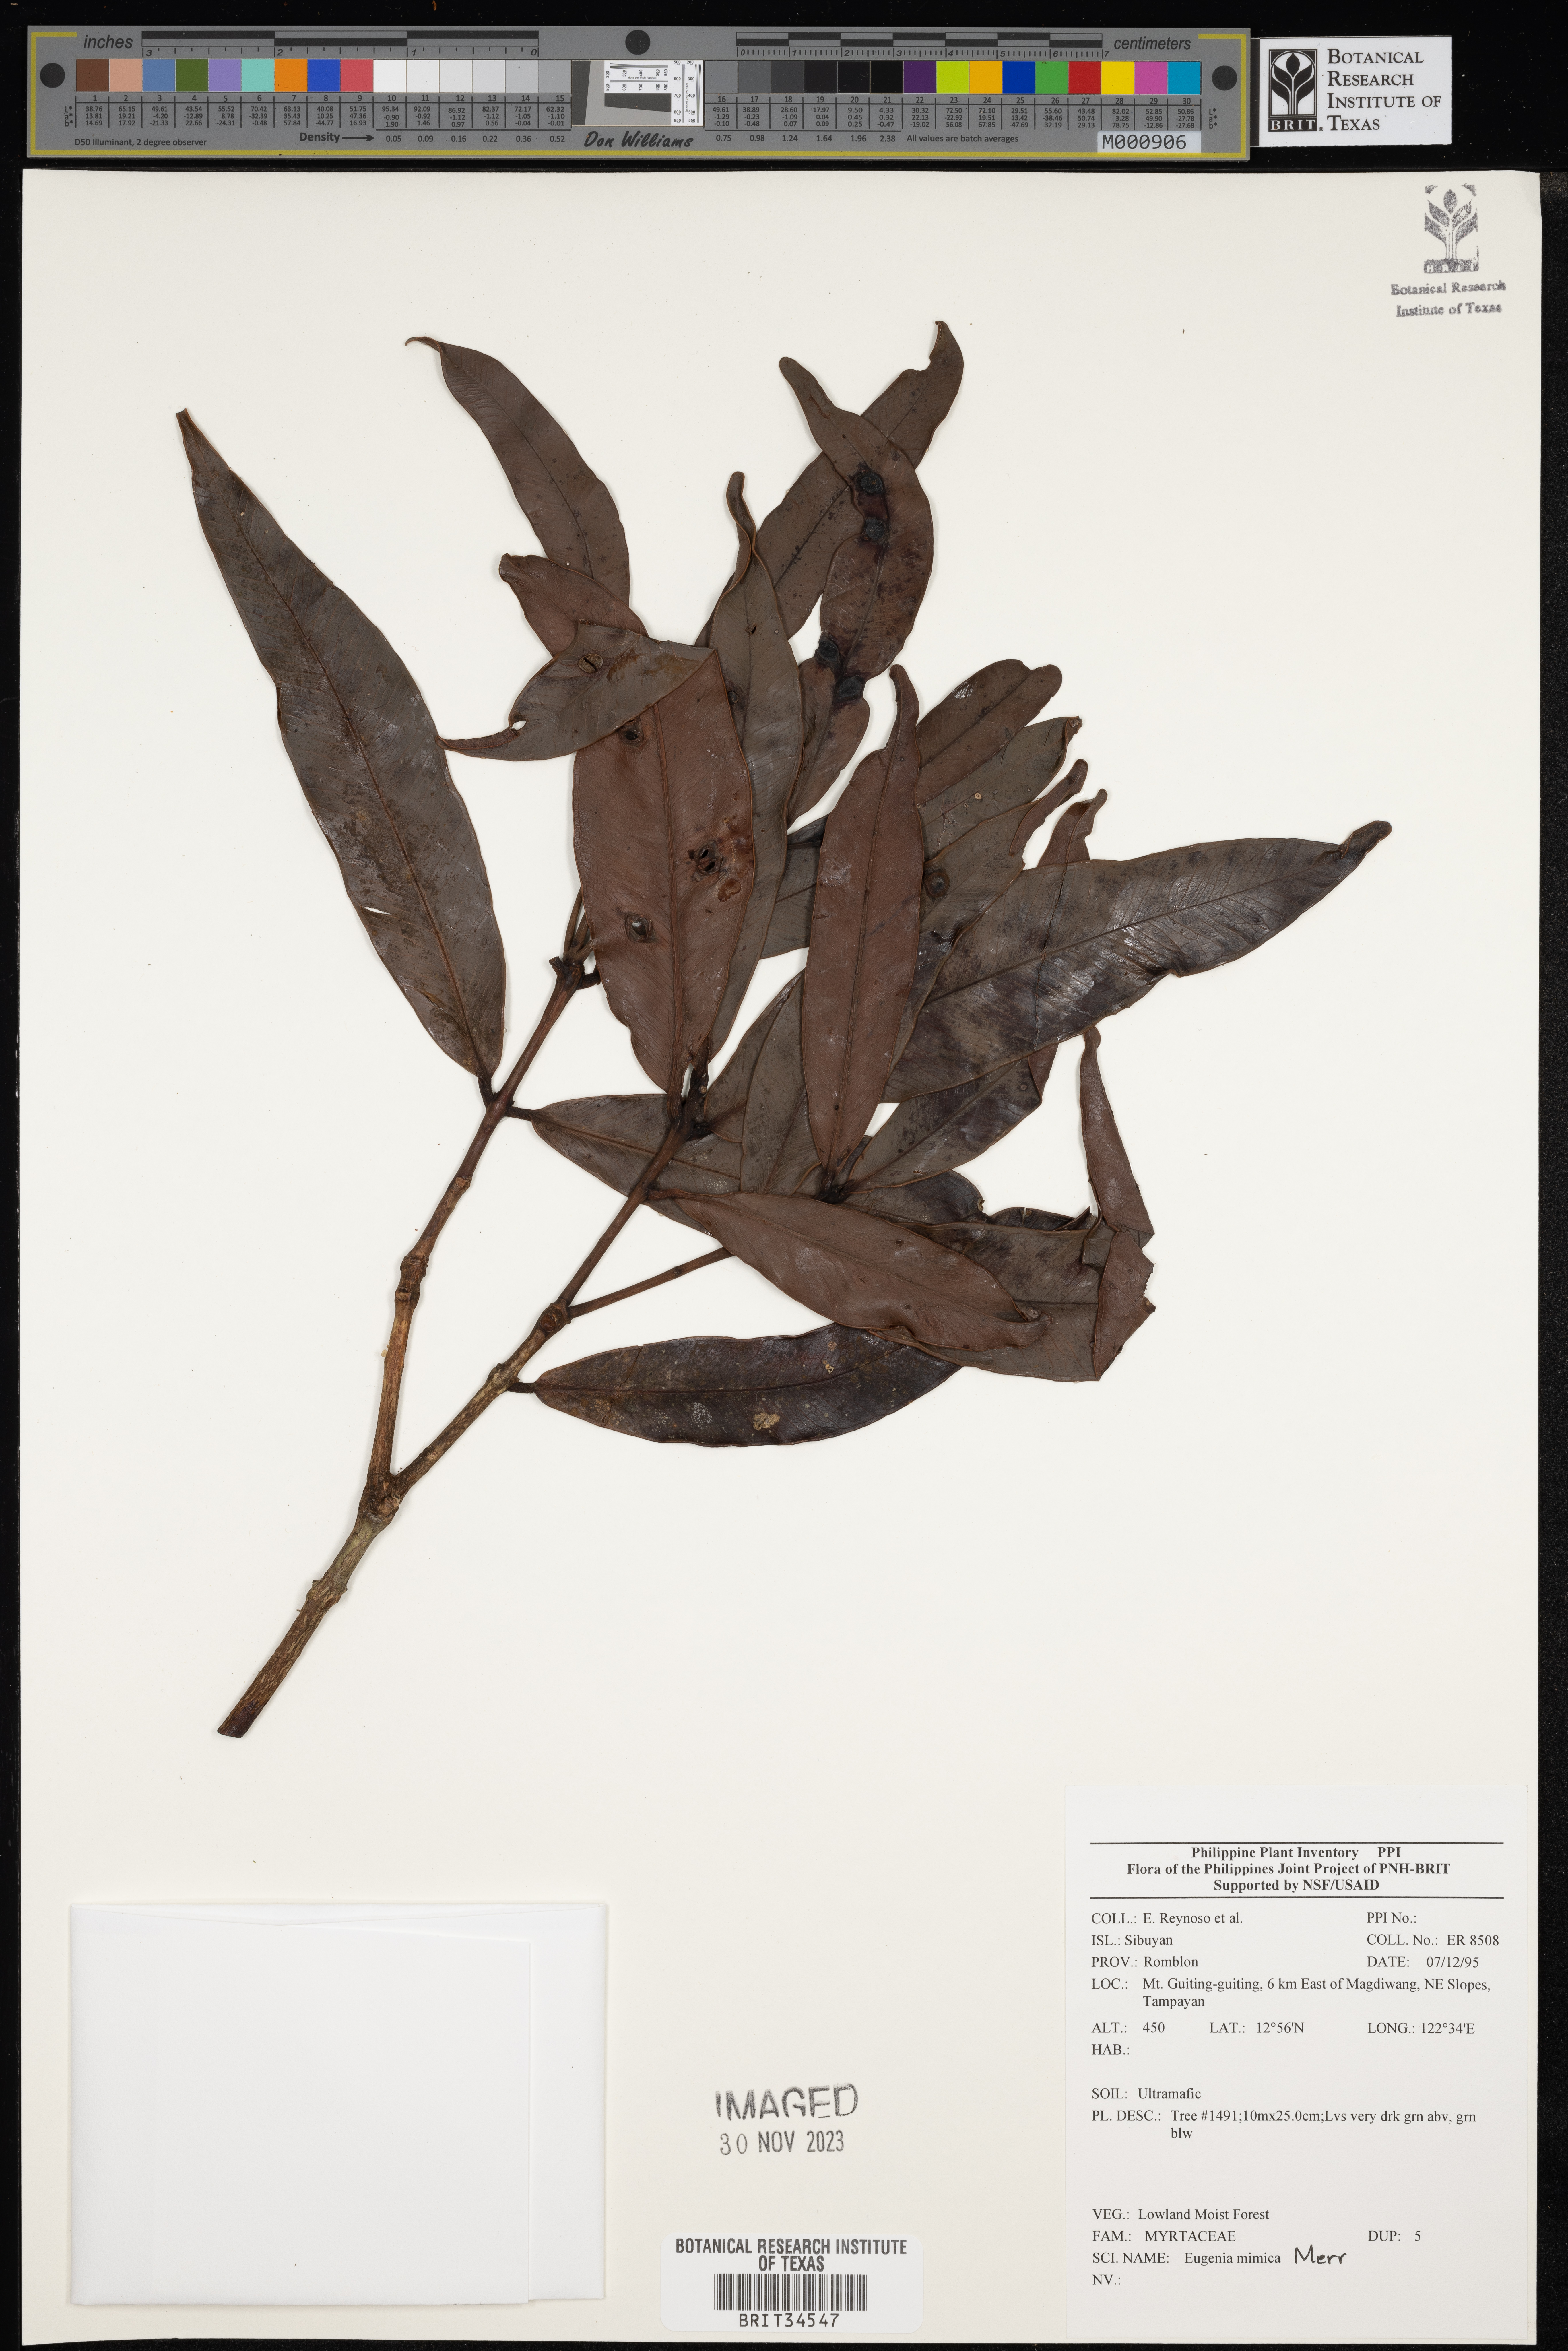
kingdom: Plantae
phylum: Tracheophyta
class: Magnoliopsida
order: Myrtales
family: Myrtaceae
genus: Eugenia
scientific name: Eugenia
